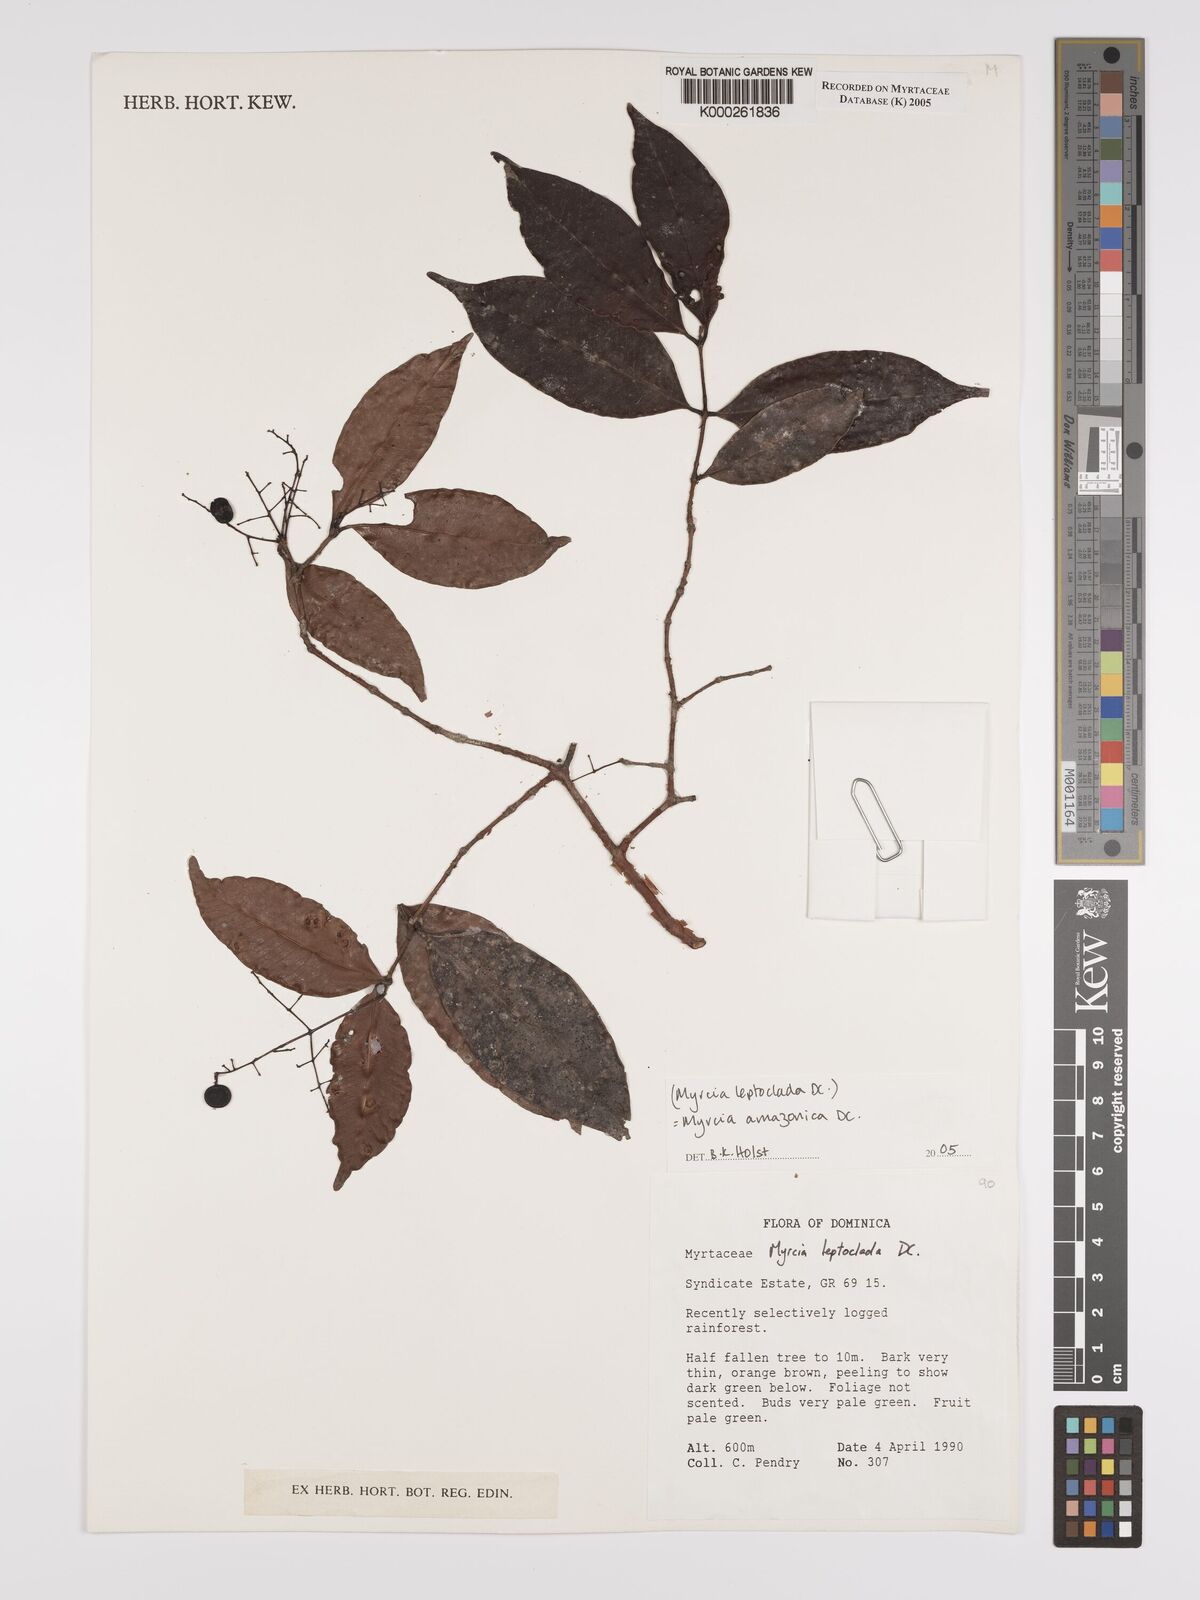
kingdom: Plantae
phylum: Tracheophyta
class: Magnoliopsida
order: Myrtales
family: Myrtaceae
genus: Myrcia
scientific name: Myrcia amazonica
